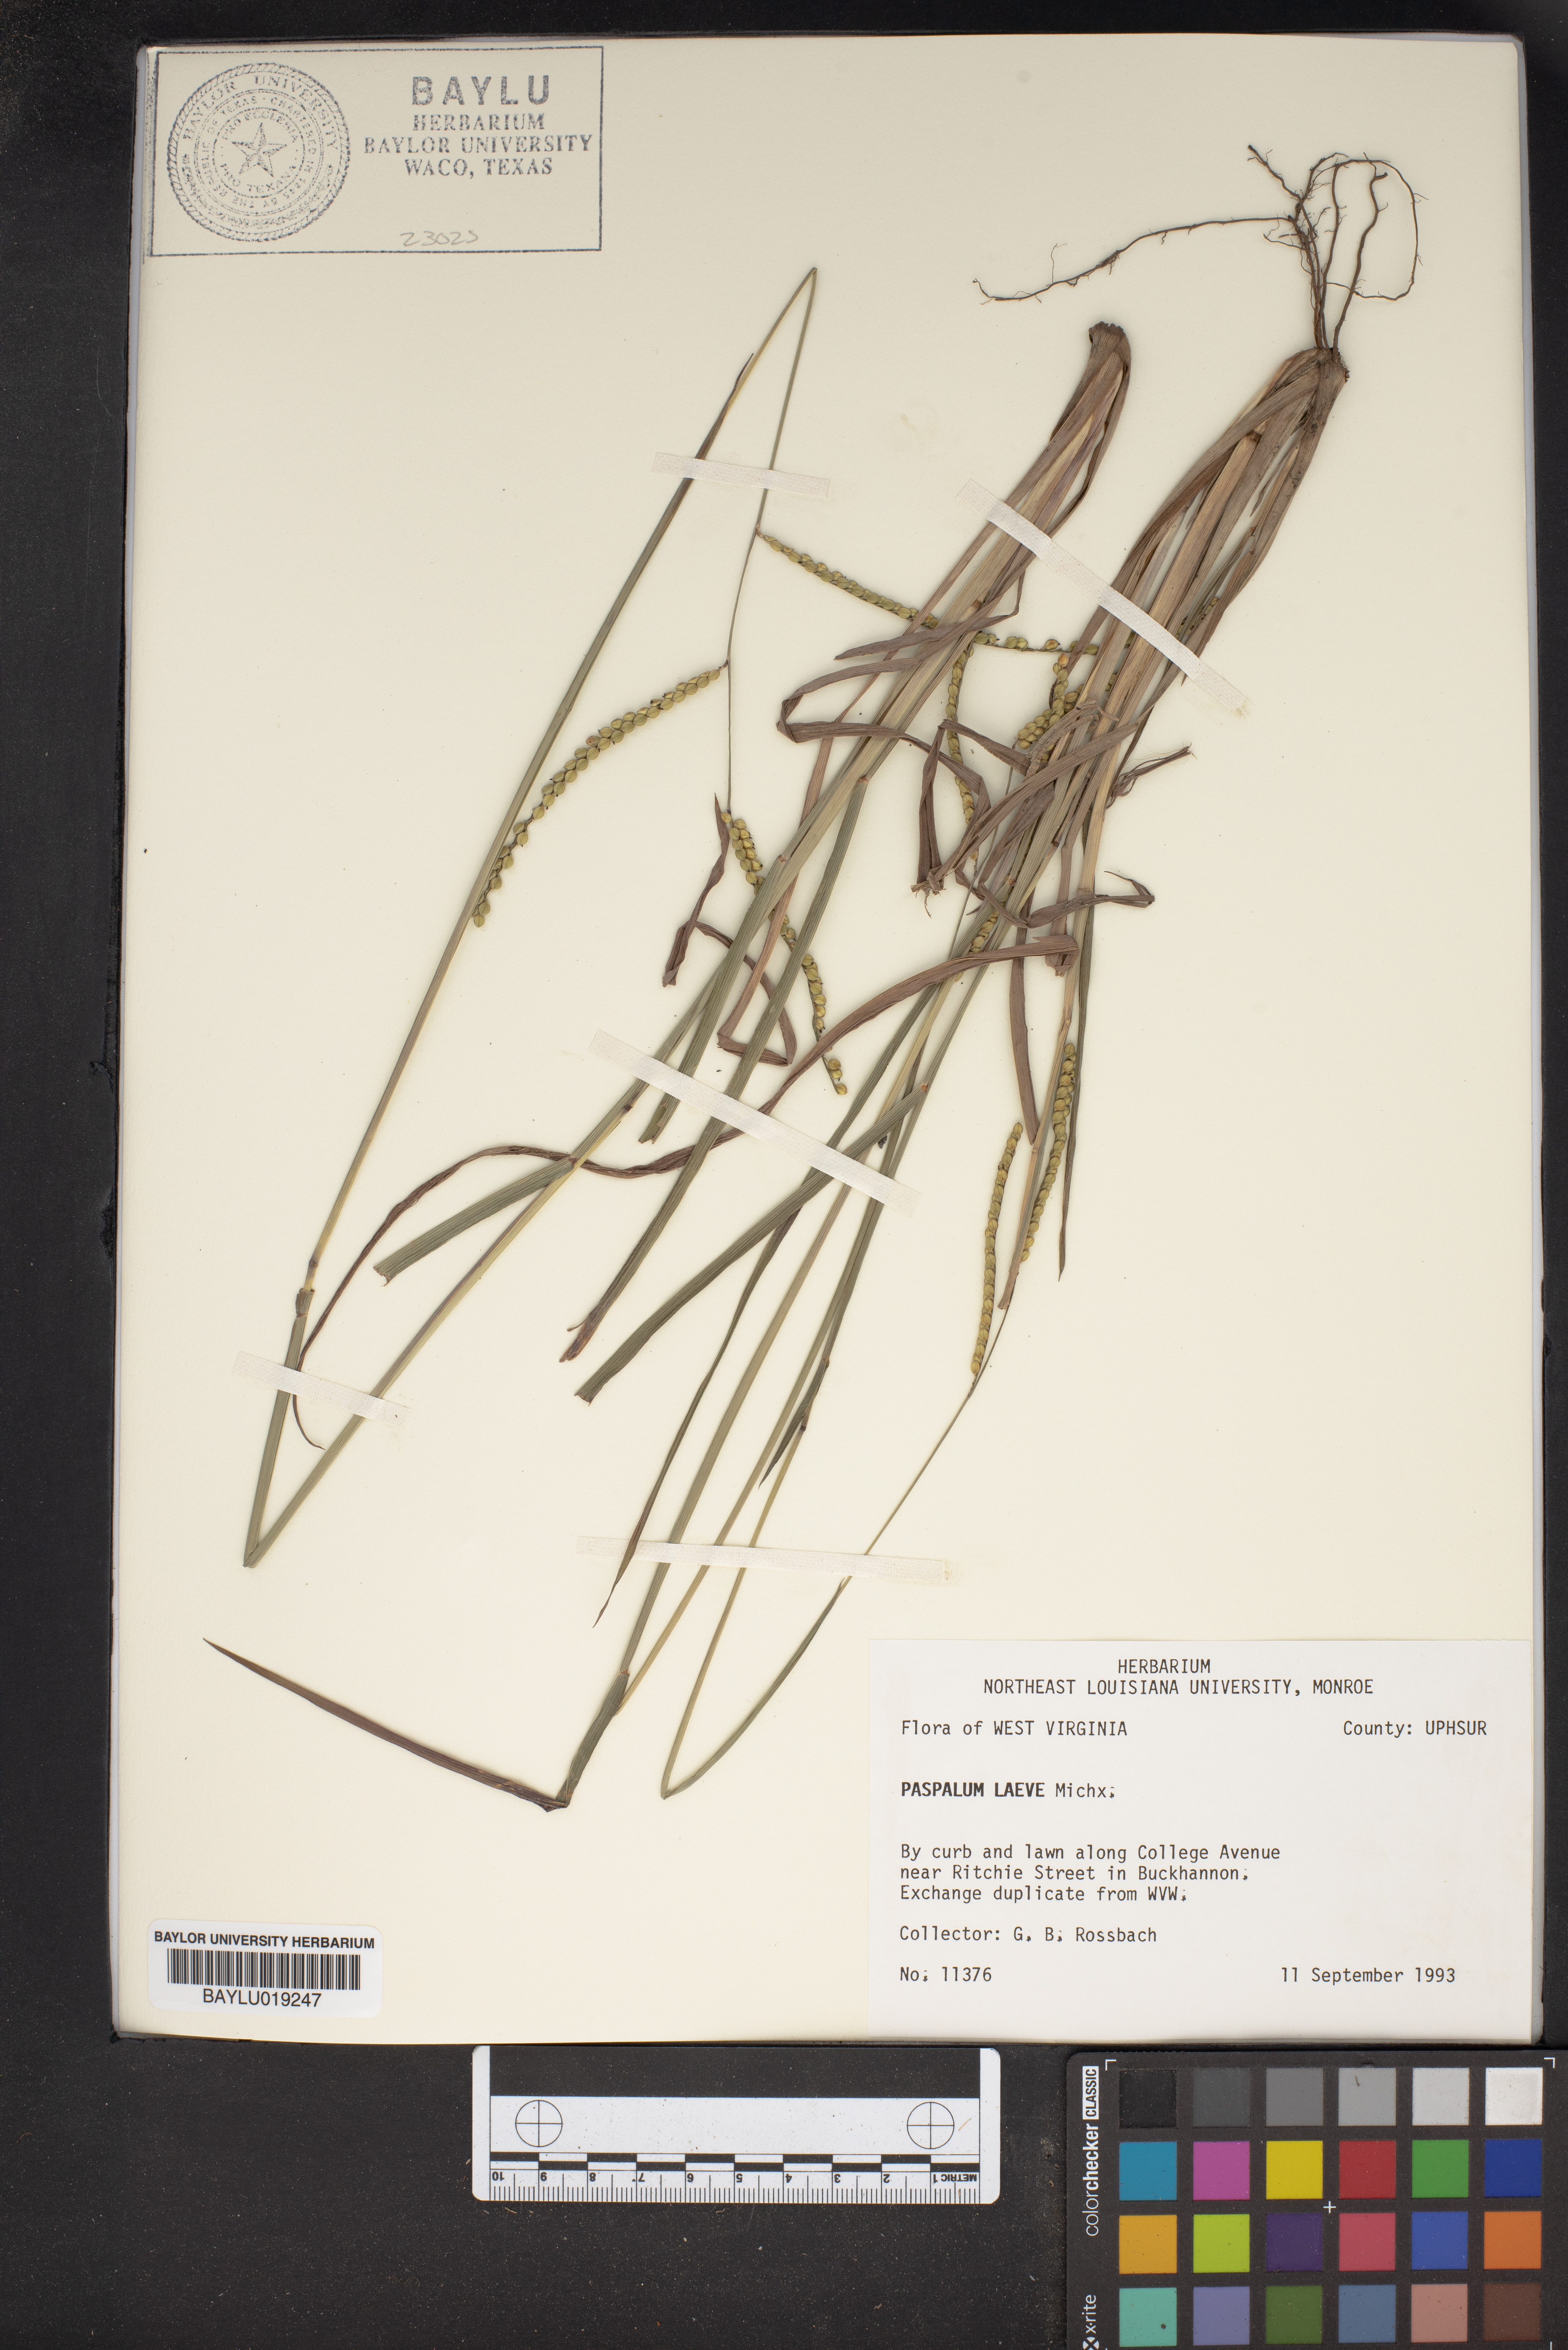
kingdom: Plantae
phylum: Tracheophyta
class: Liliopsida
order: Poales
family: Poaceae
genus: Paspalum
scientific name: Paspalum laeve
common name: Field paspalum
